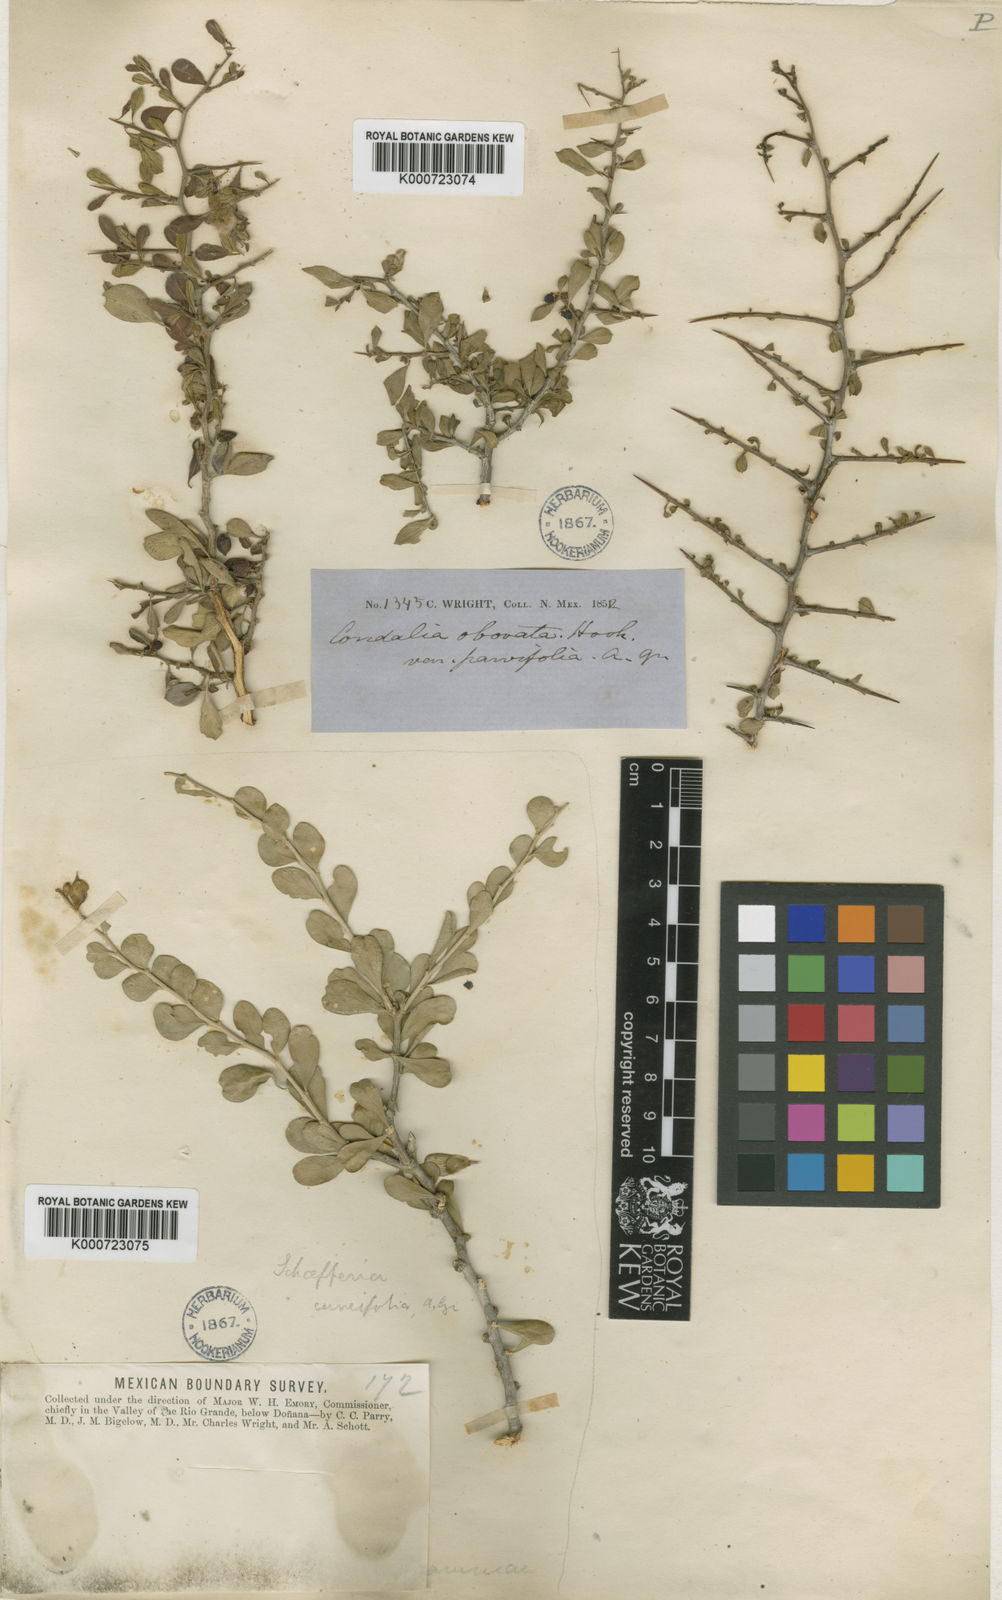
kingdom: Plantae
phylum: Tracheophyta
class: Magnoliopsida
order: Rosales
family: Rhamnaceae
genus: Condalia
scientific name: Condalia hookeri
